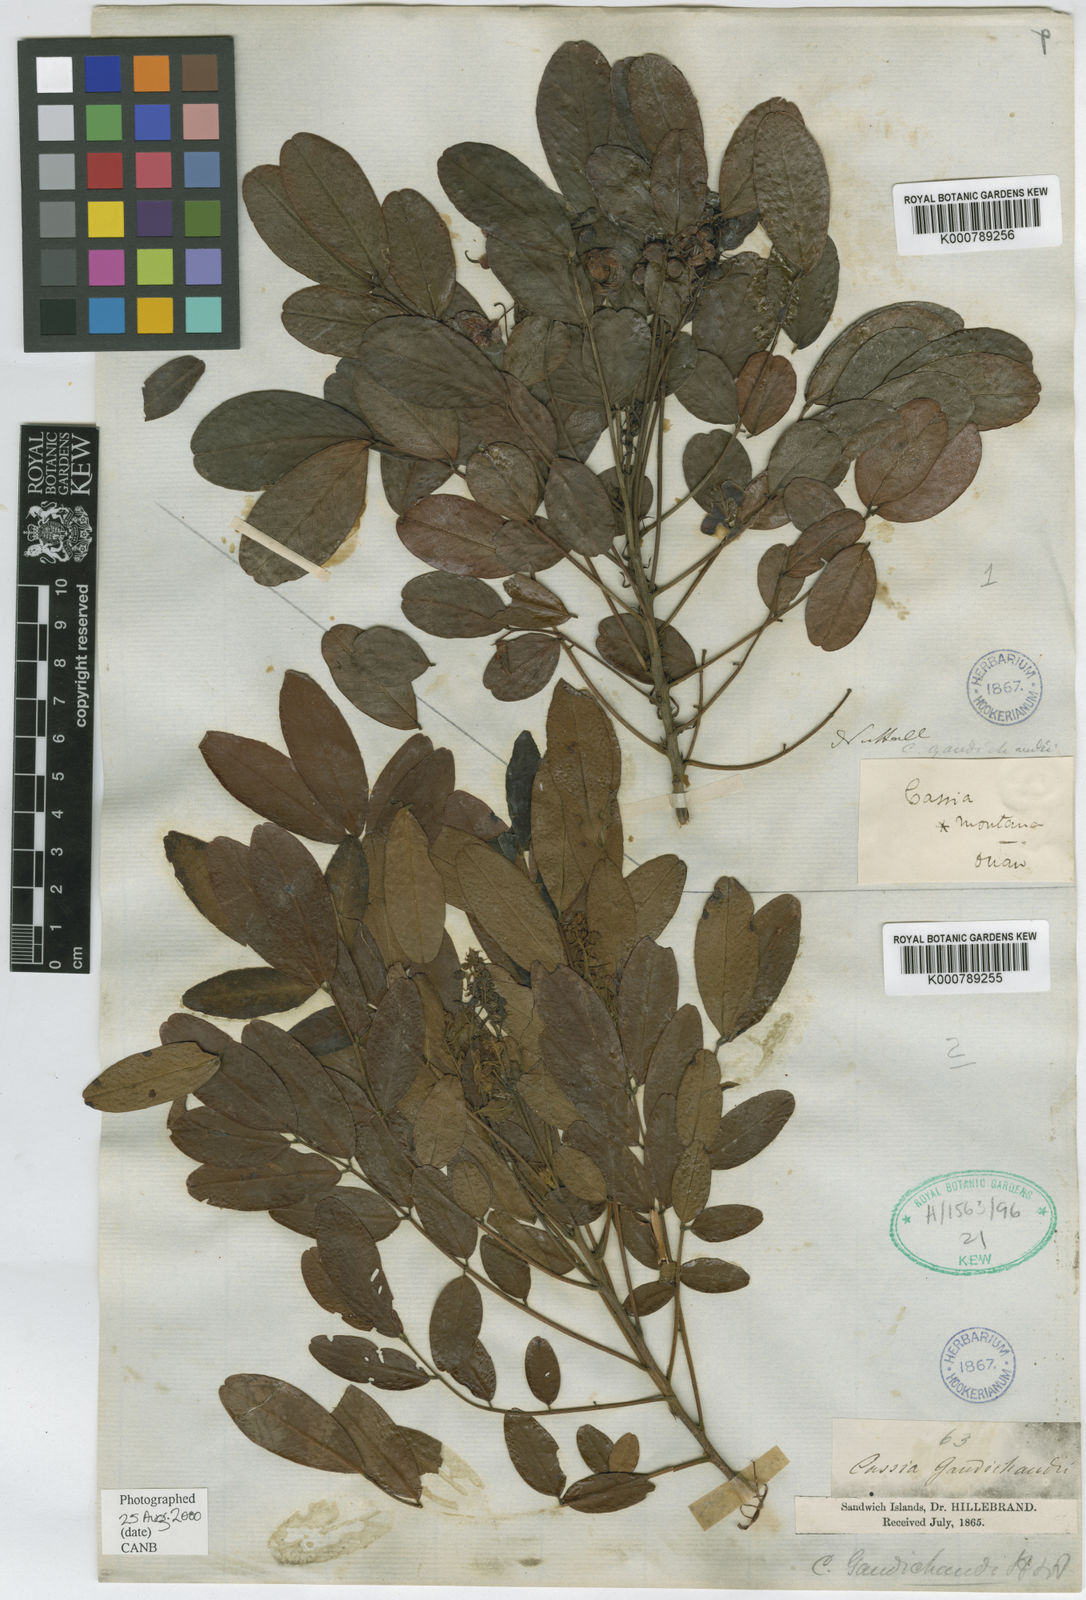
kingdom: Plantae
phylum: Tracheophyta
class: Magnoliopsida
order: Fabales
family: Fabaceae
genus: Senna
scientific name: Senna gaudichaudii
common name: Climbing cassia
